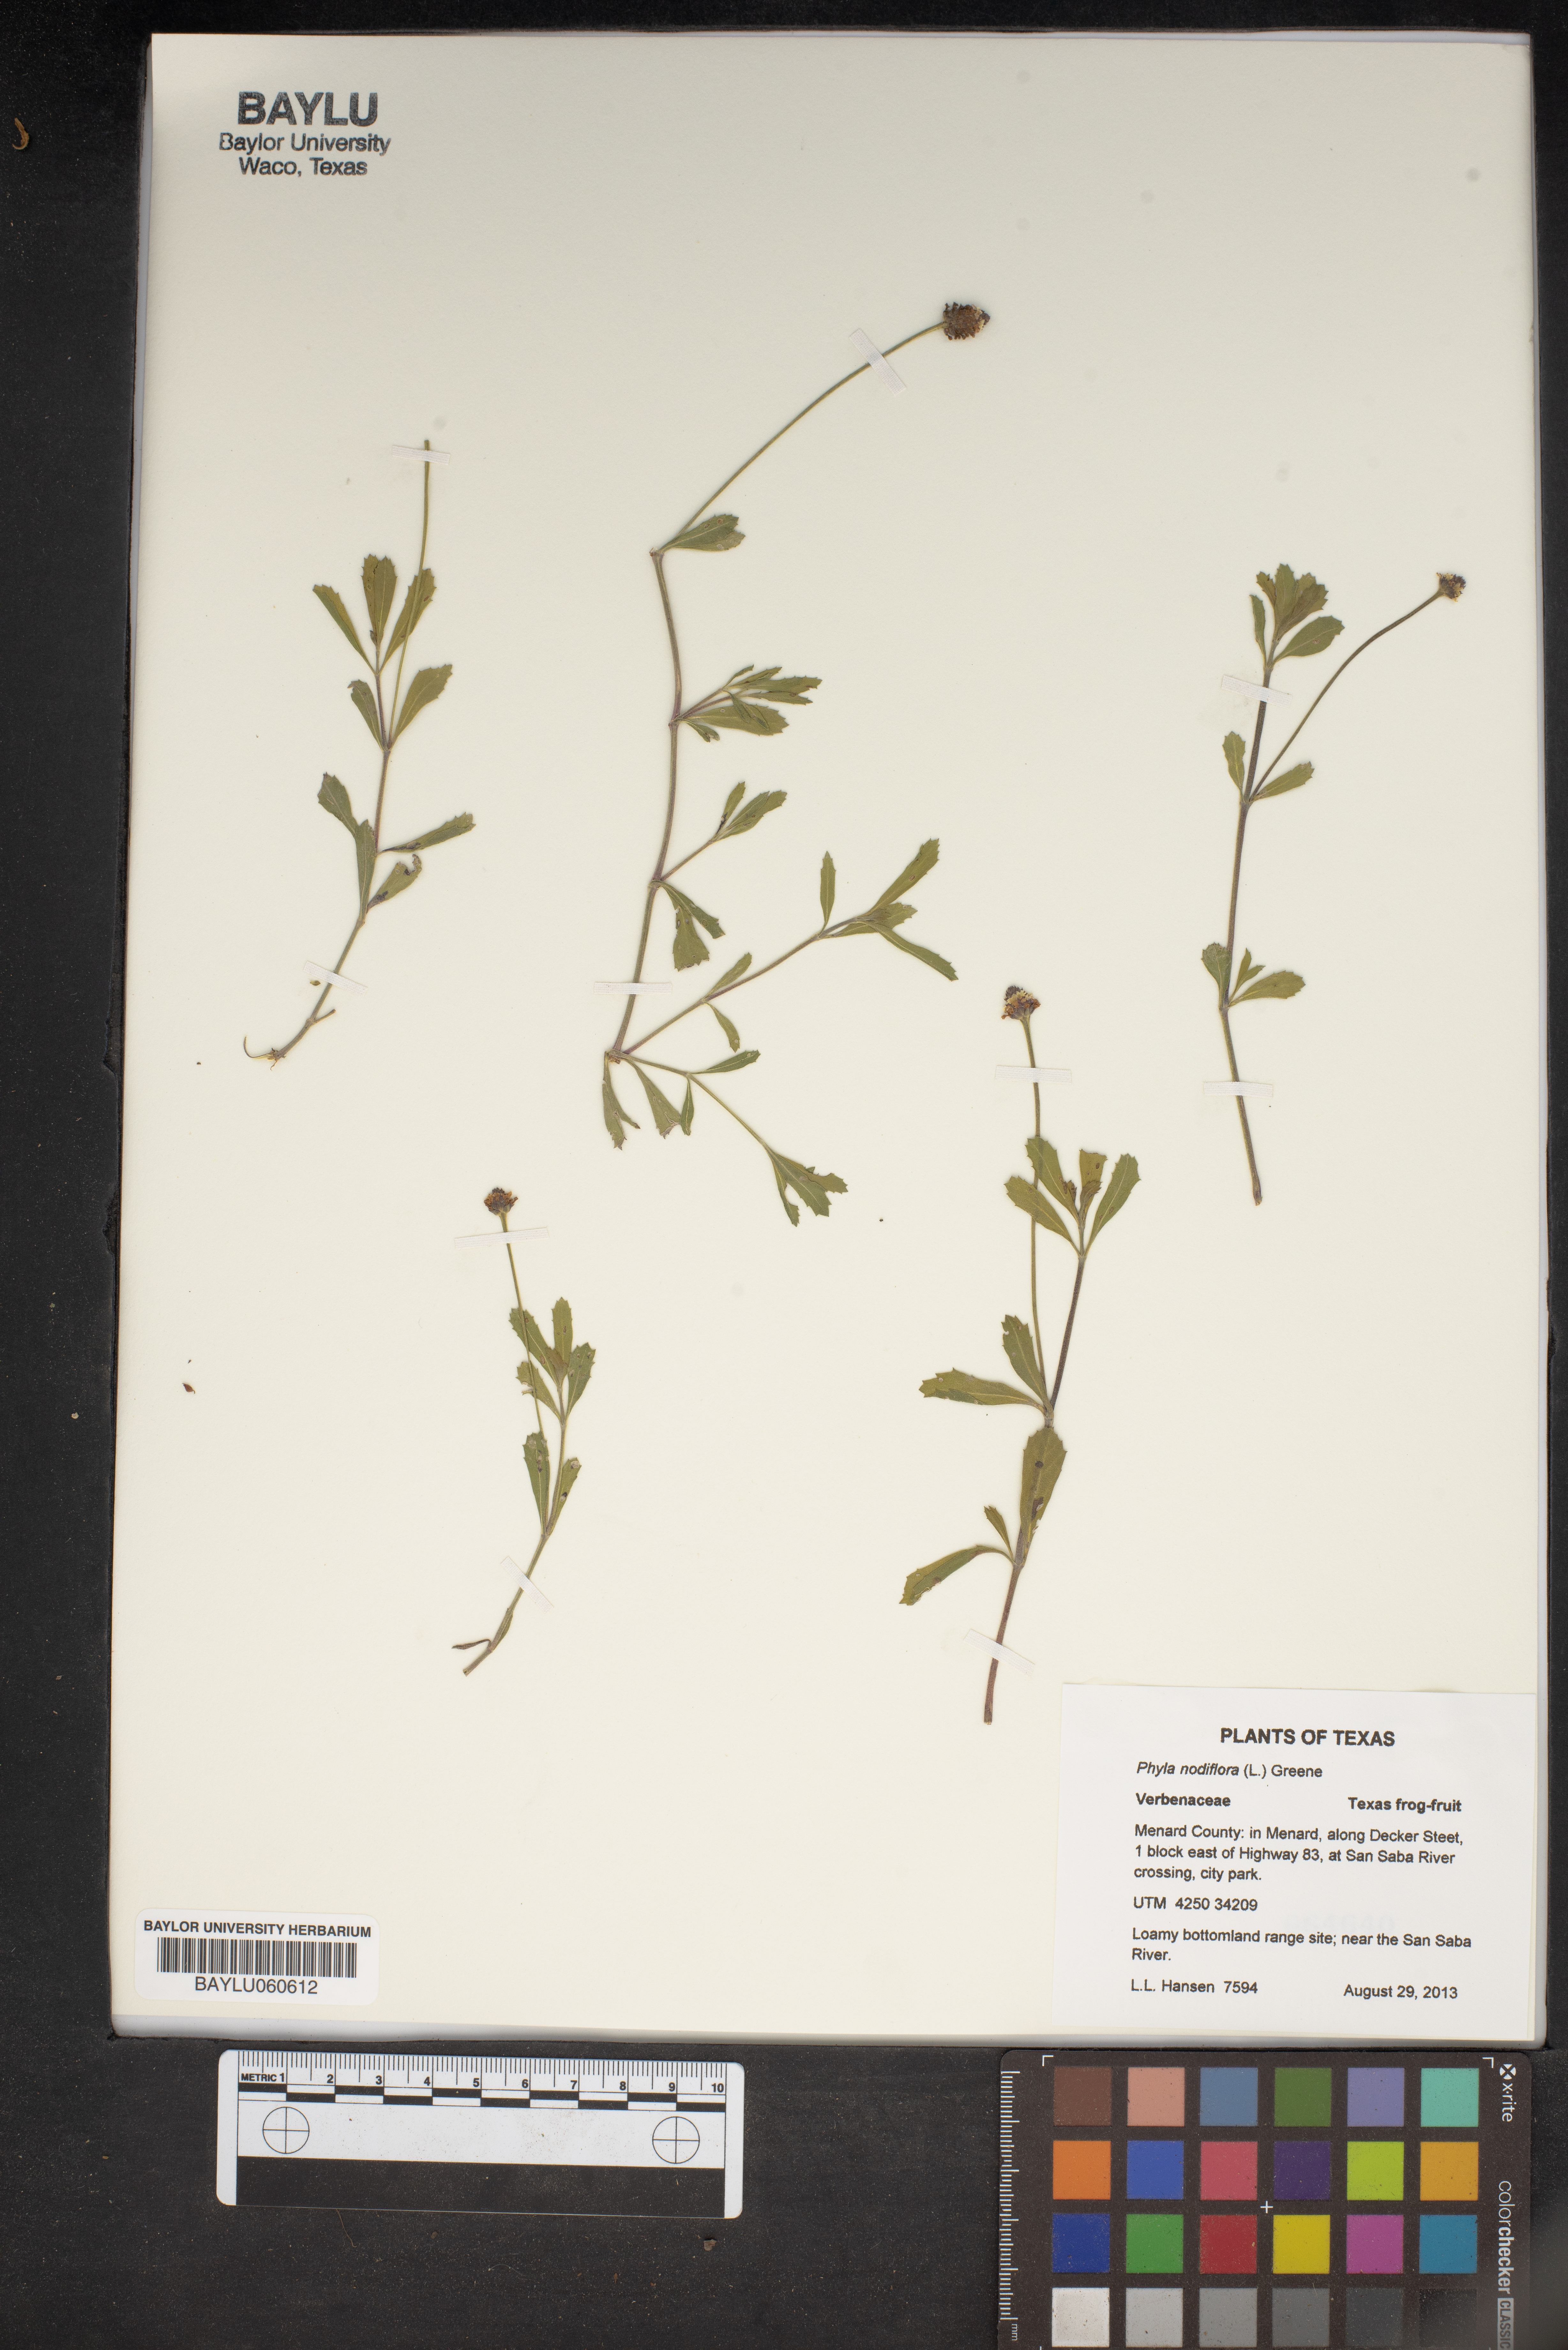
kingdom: Plantae
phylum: Tracheophyta
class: Magnoliopsida
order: Lamiales
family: Verbenaceae
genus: Phyla
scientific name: Phyla nodiflora
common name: Frogfruit
